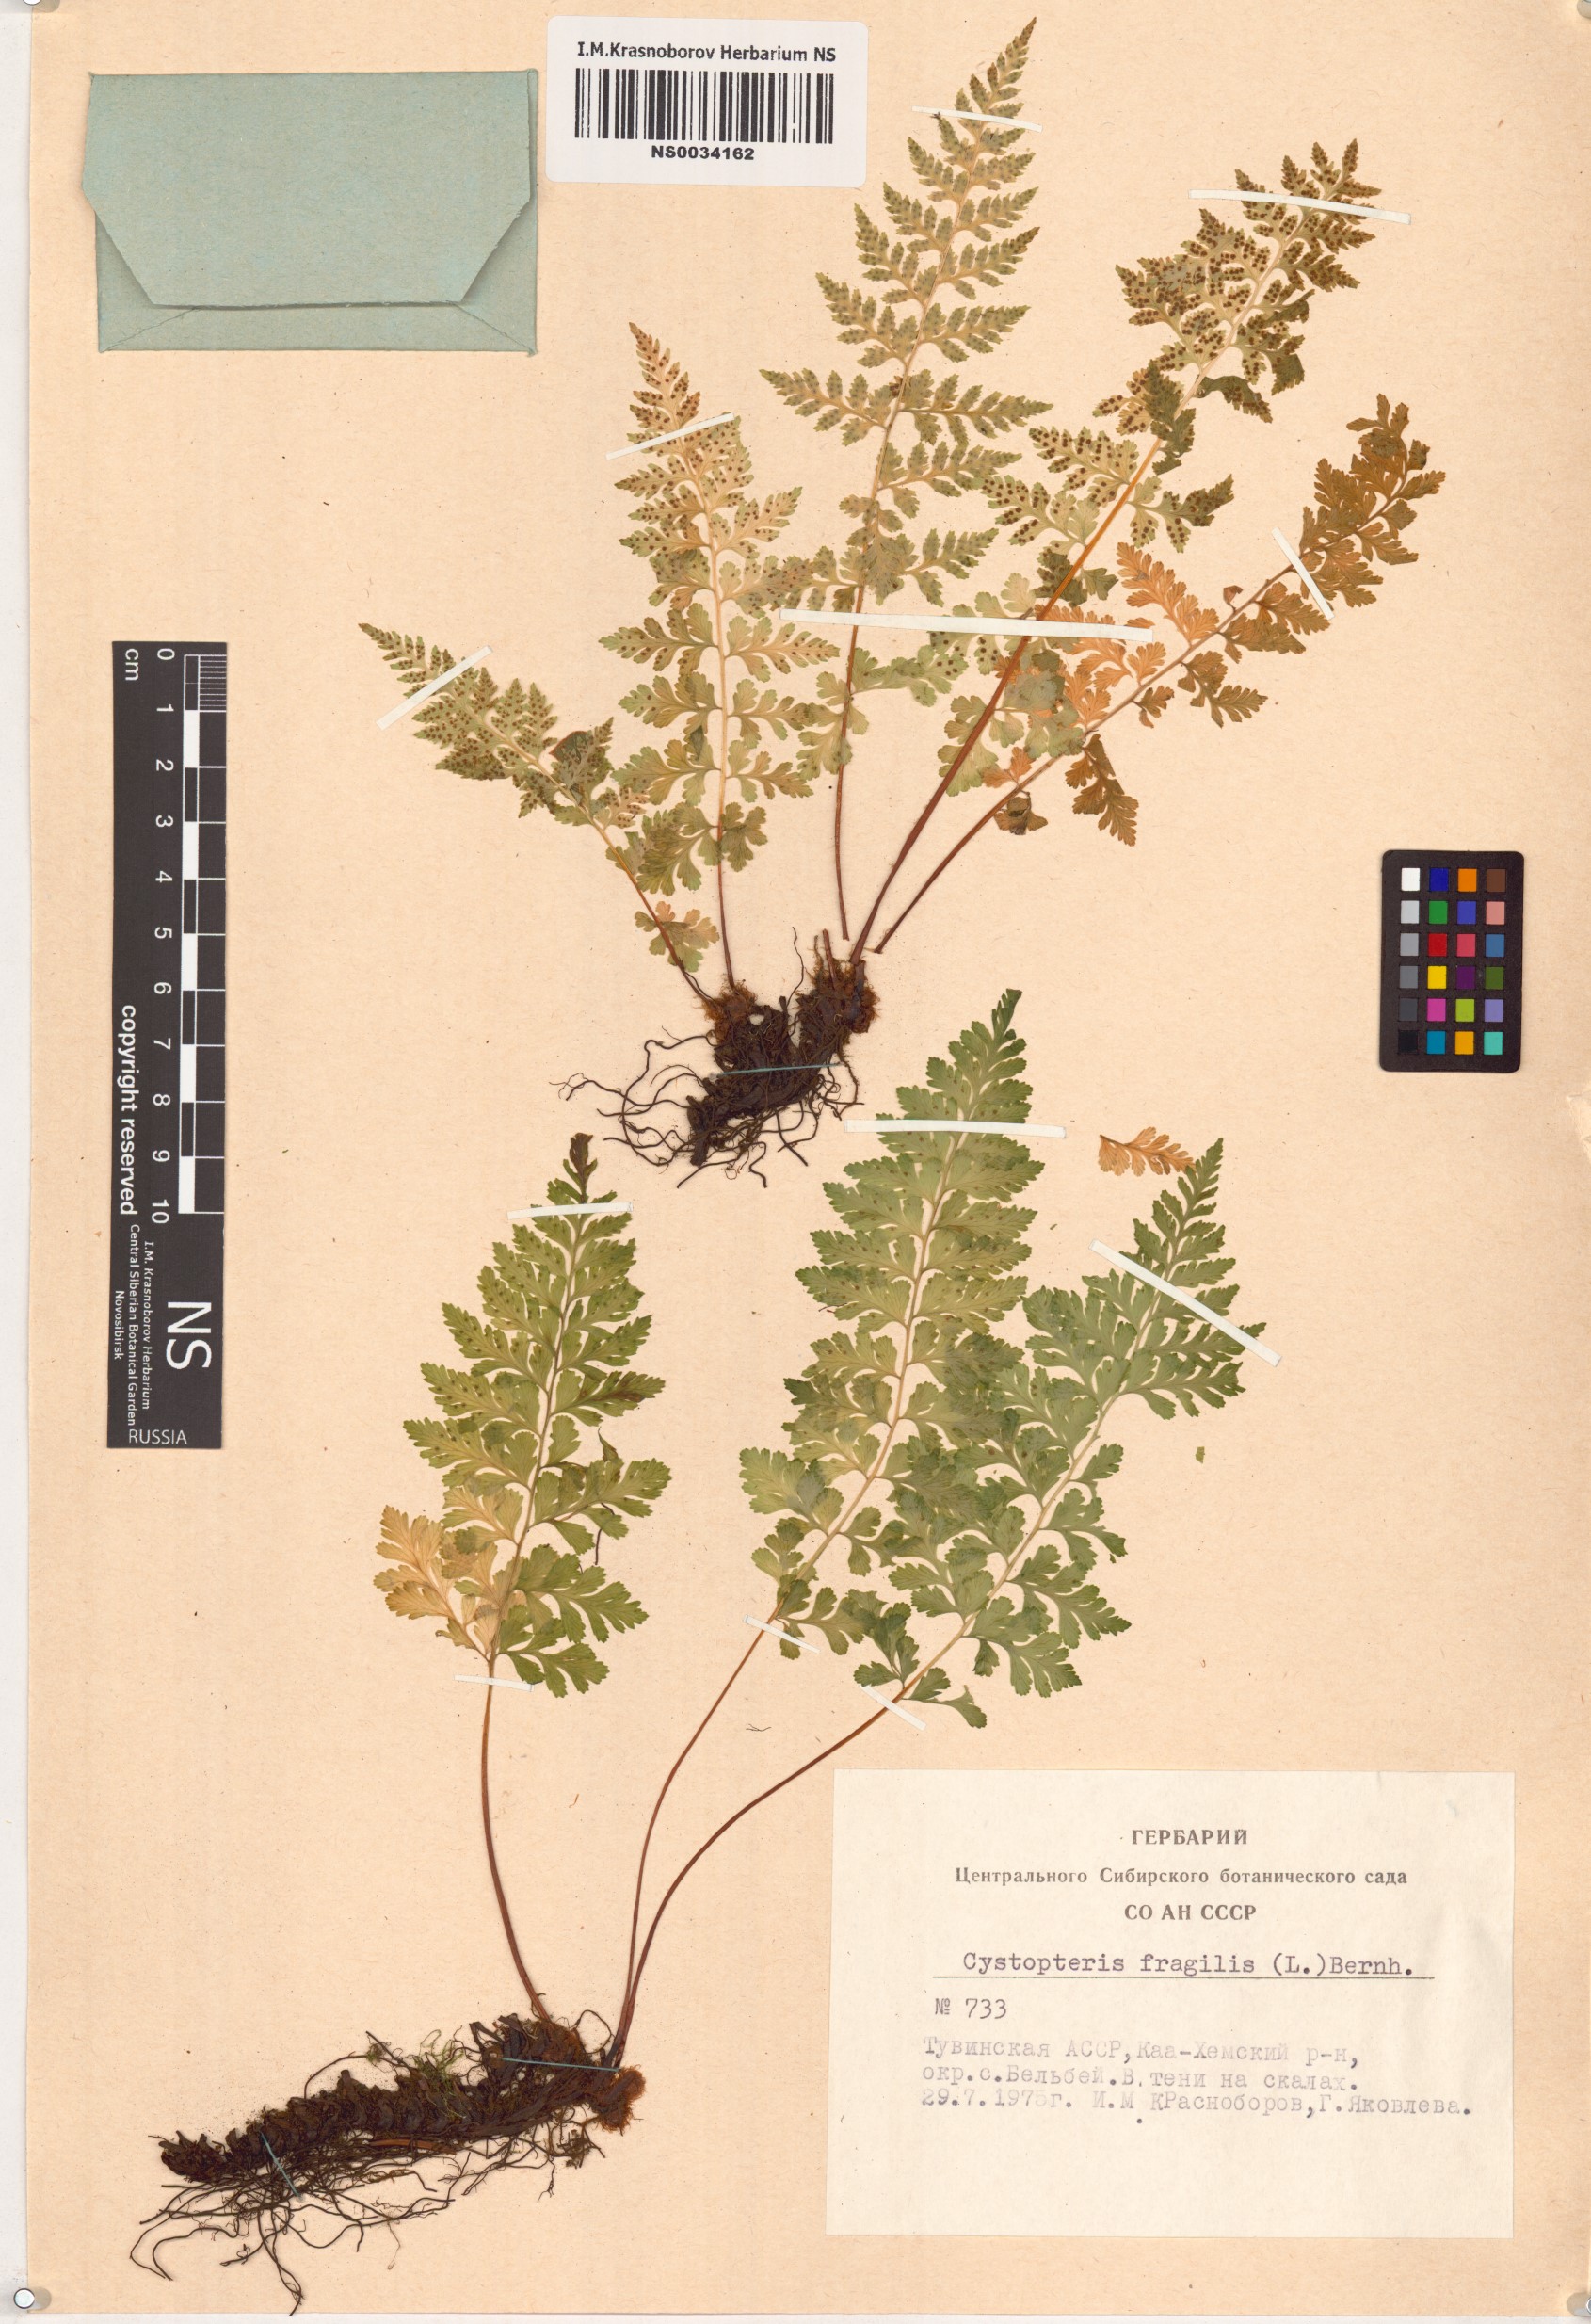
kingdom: Plantae
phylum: Tracheophyta
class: Polypodiopsida
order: Polypodiales
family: Cystopteridaceae
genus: Cystopteris
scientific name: Cystopteris fragilis
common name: Brittle bladder fern
